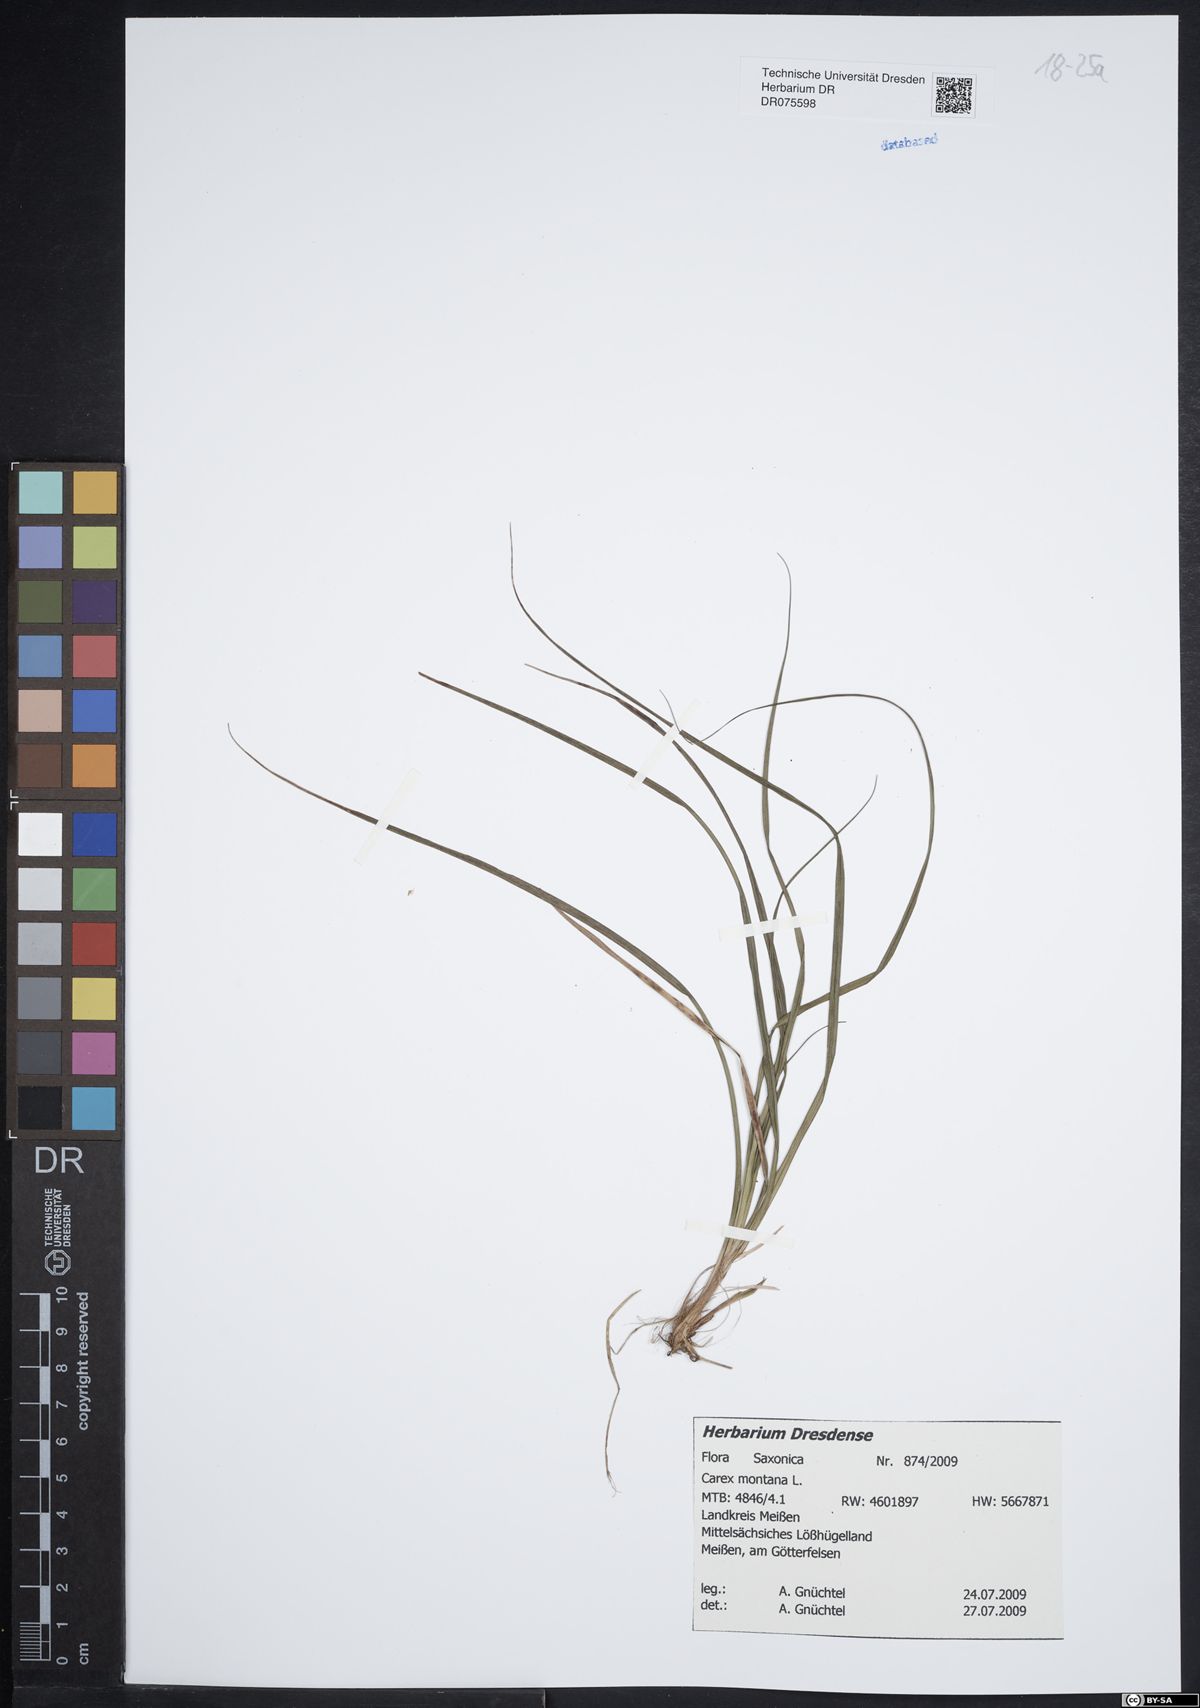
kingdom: Plantae
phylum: Tracheophyta
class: Liliopsida
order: Poales
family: Cyperaceae
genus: Carex
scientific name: Carex montana
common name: Soft-leaved sedge
